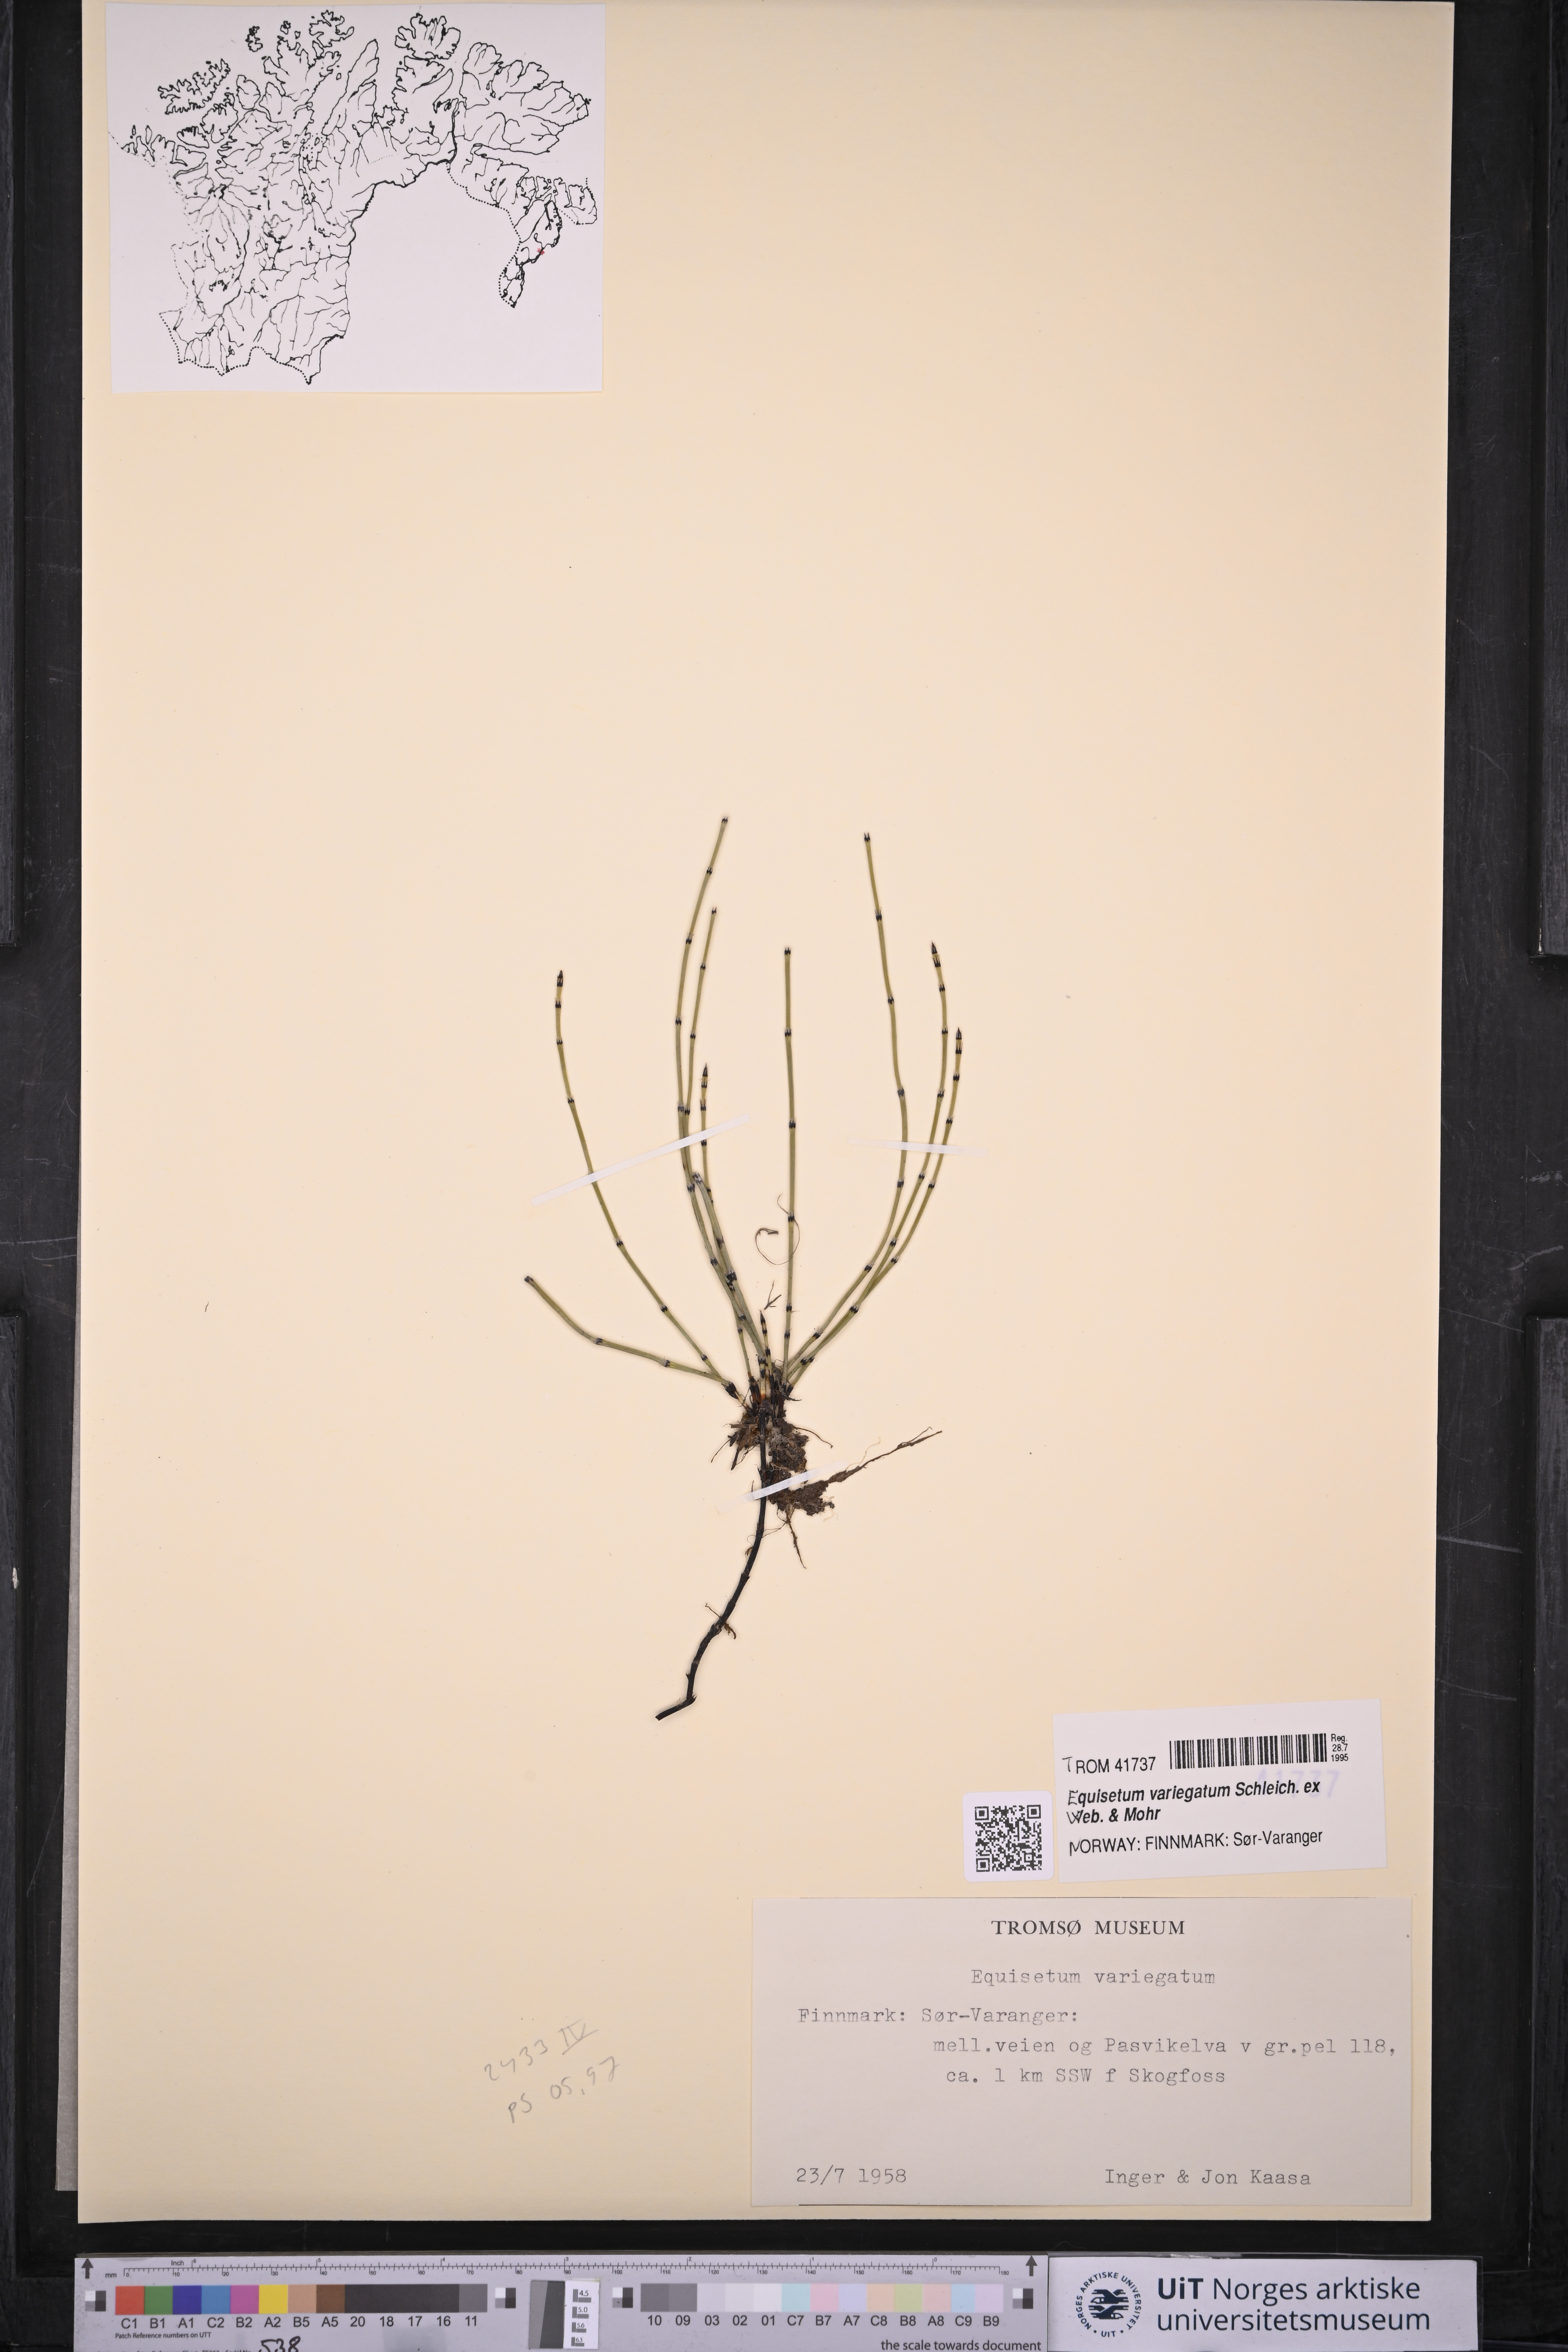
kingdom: Plantae
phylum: Tracheophyta
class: Polypodiopsida
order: Equisetales
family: Equisetaceae
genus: Equisetum
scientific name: Equisetum variegatum
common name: Variegated horsetail
